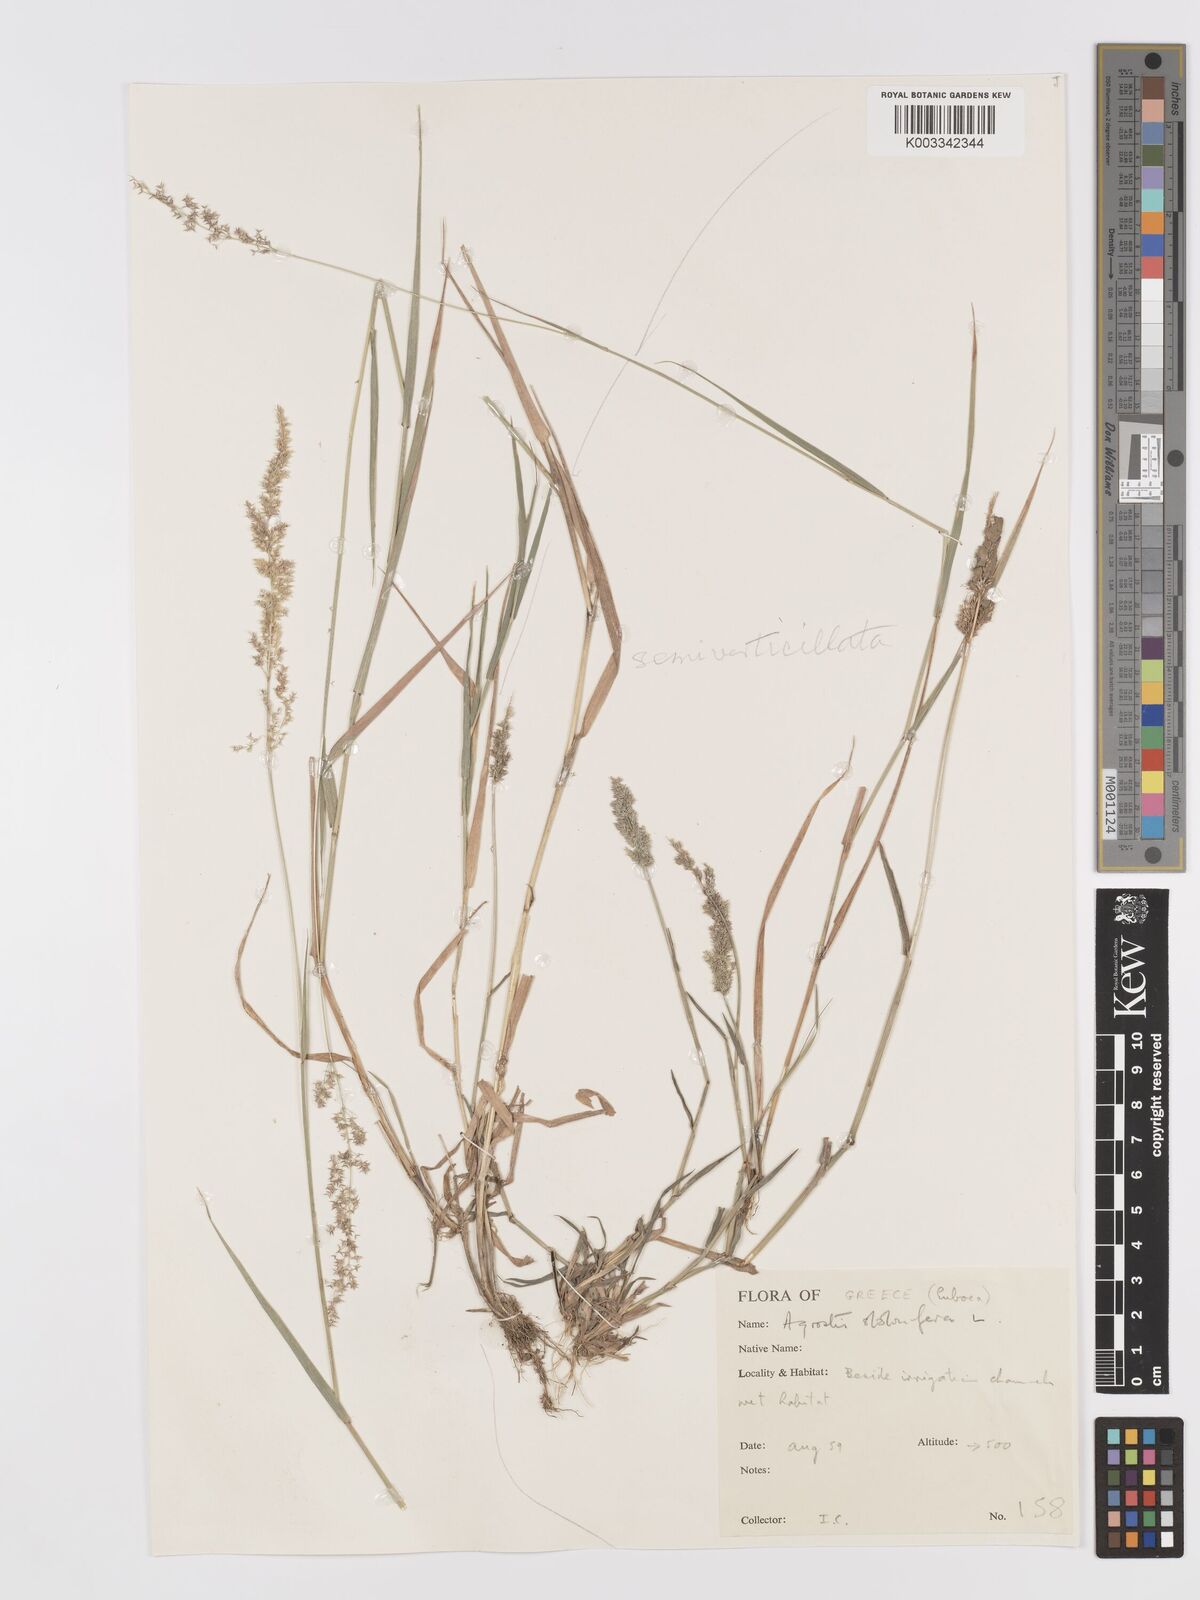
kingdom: Plantae
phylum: Tracheophyta
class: Liliopsida
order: Poales
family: Poaceae
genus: Agrostis
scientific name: Agrostis gigantea
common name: Black bent
